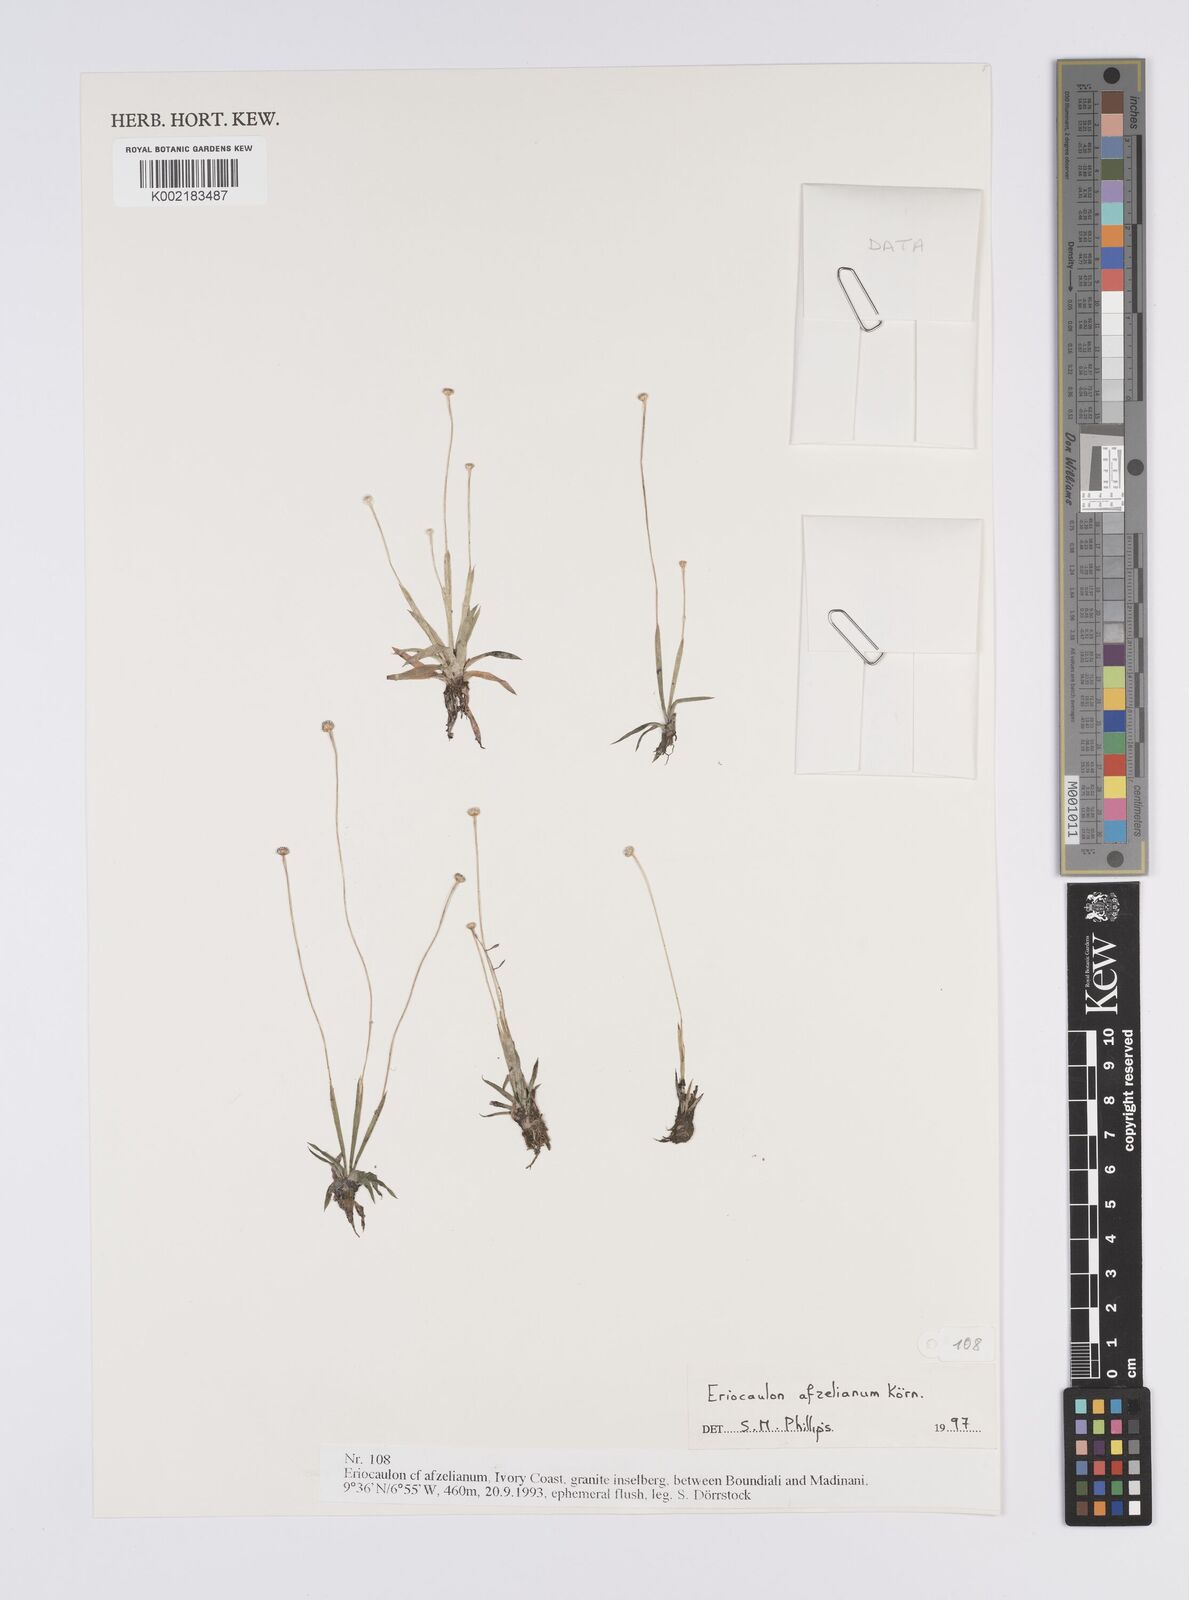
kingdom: Plantae
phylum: Tracheophyta
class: Liliopsida
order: Poales
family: Eriocaulaceae
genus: Eriocaulon
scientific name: Eriocaulon afzelianum
